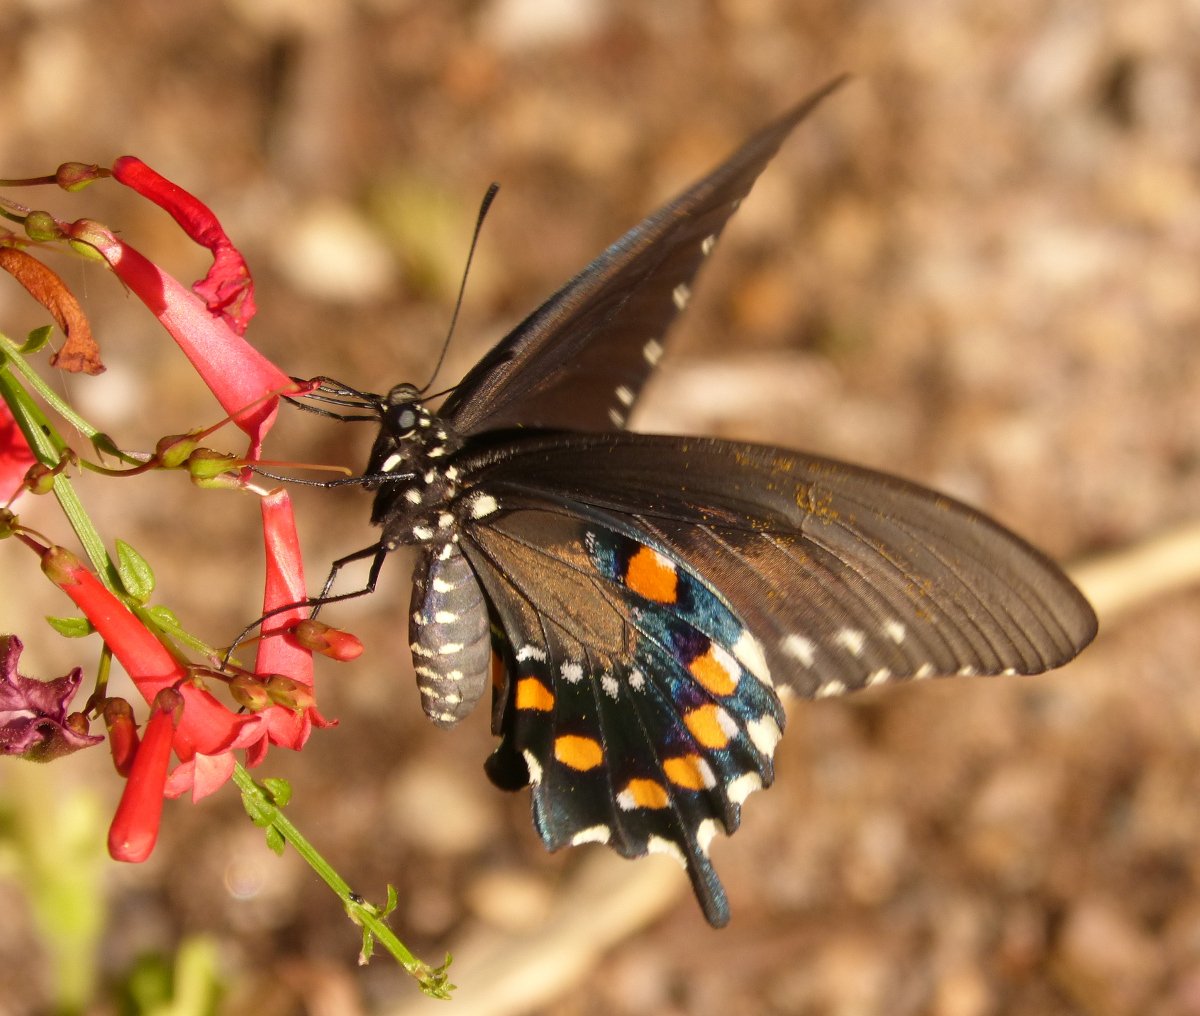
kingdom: Animalia
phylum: Arthropoda
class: Insecta
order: Lepidoptera
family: Papilionidae
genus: Battus
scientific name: Battus philenor
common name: Pipevine Swallowtail
